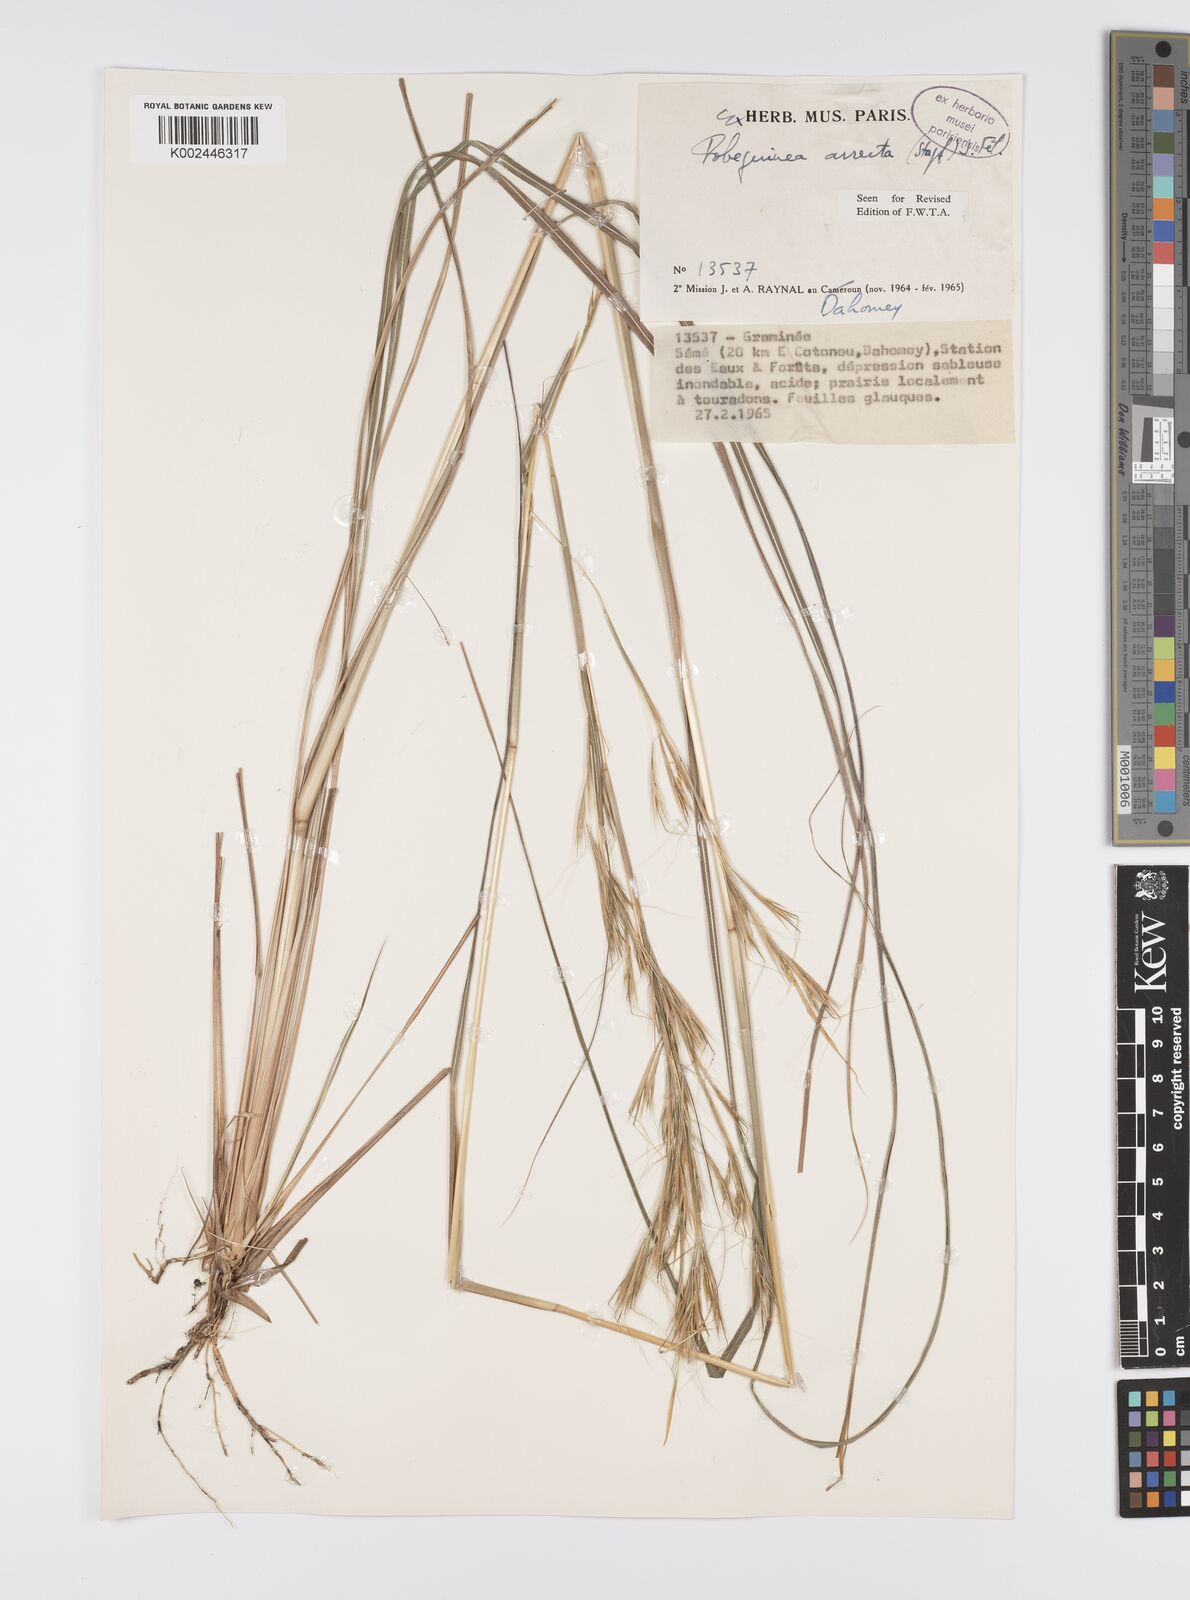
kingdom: Plantae
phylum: Tracheophyta
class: Liliopsida
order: Poales
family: Poaceae
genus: Anadelphia
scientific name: Anadelphia afzeliana
